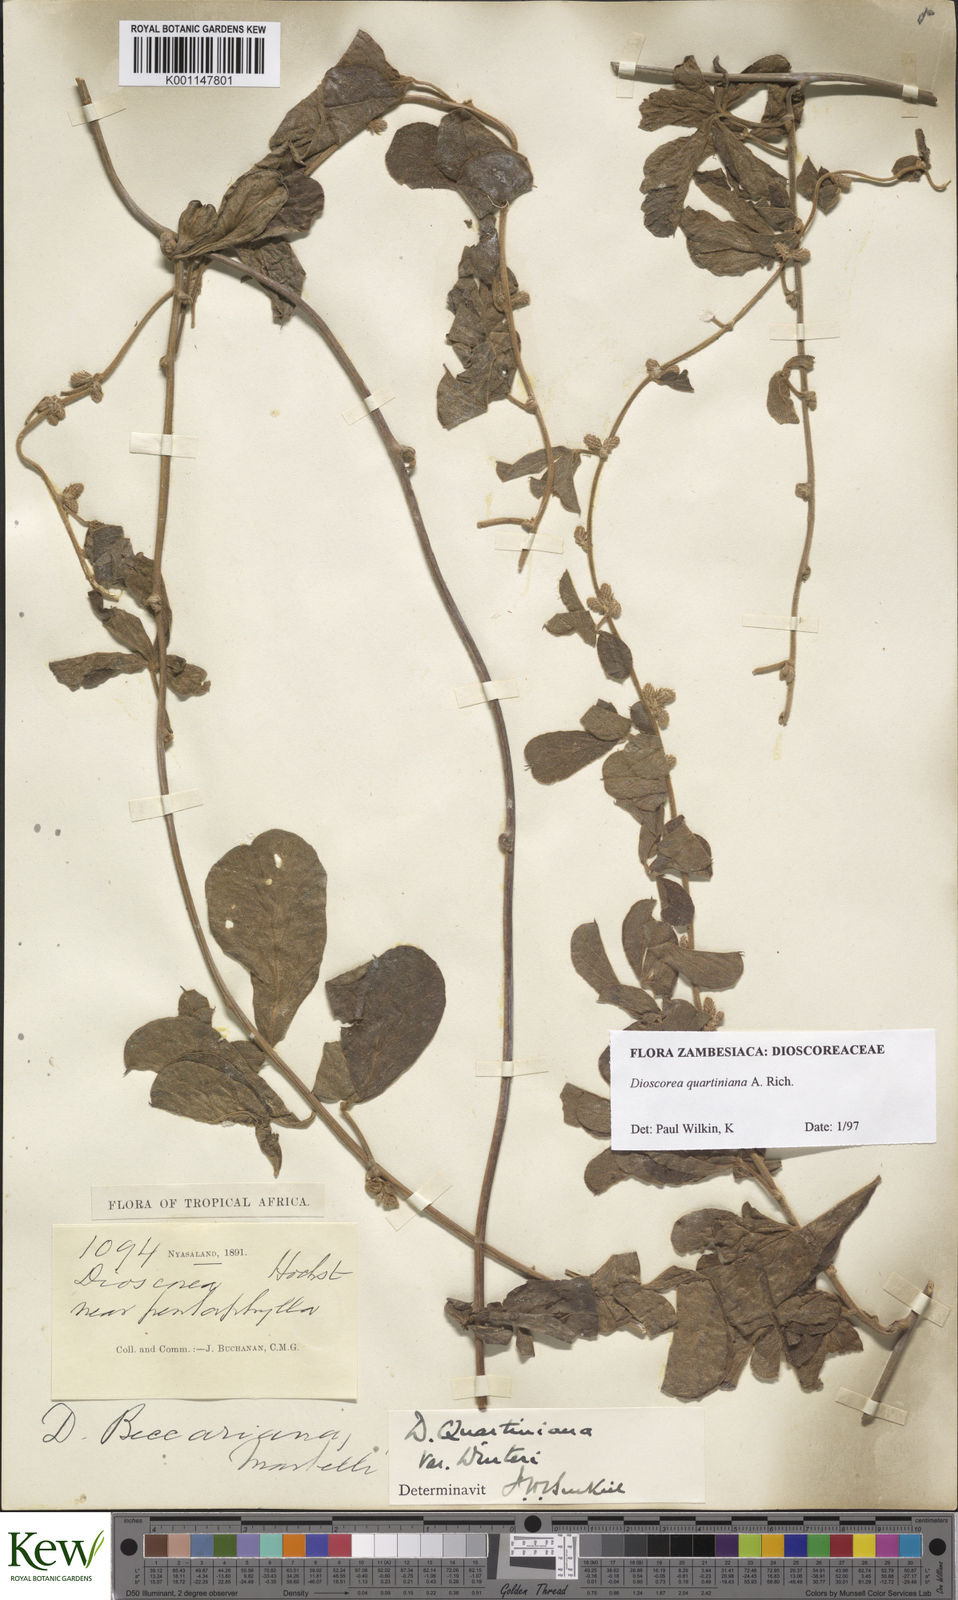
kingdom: Plantae
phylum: Tracheophyta
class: Liliopsida
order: Dioscoreales
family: Dioscoreaceae
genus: Dioscorea
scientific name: Dioscorea quartiniana
